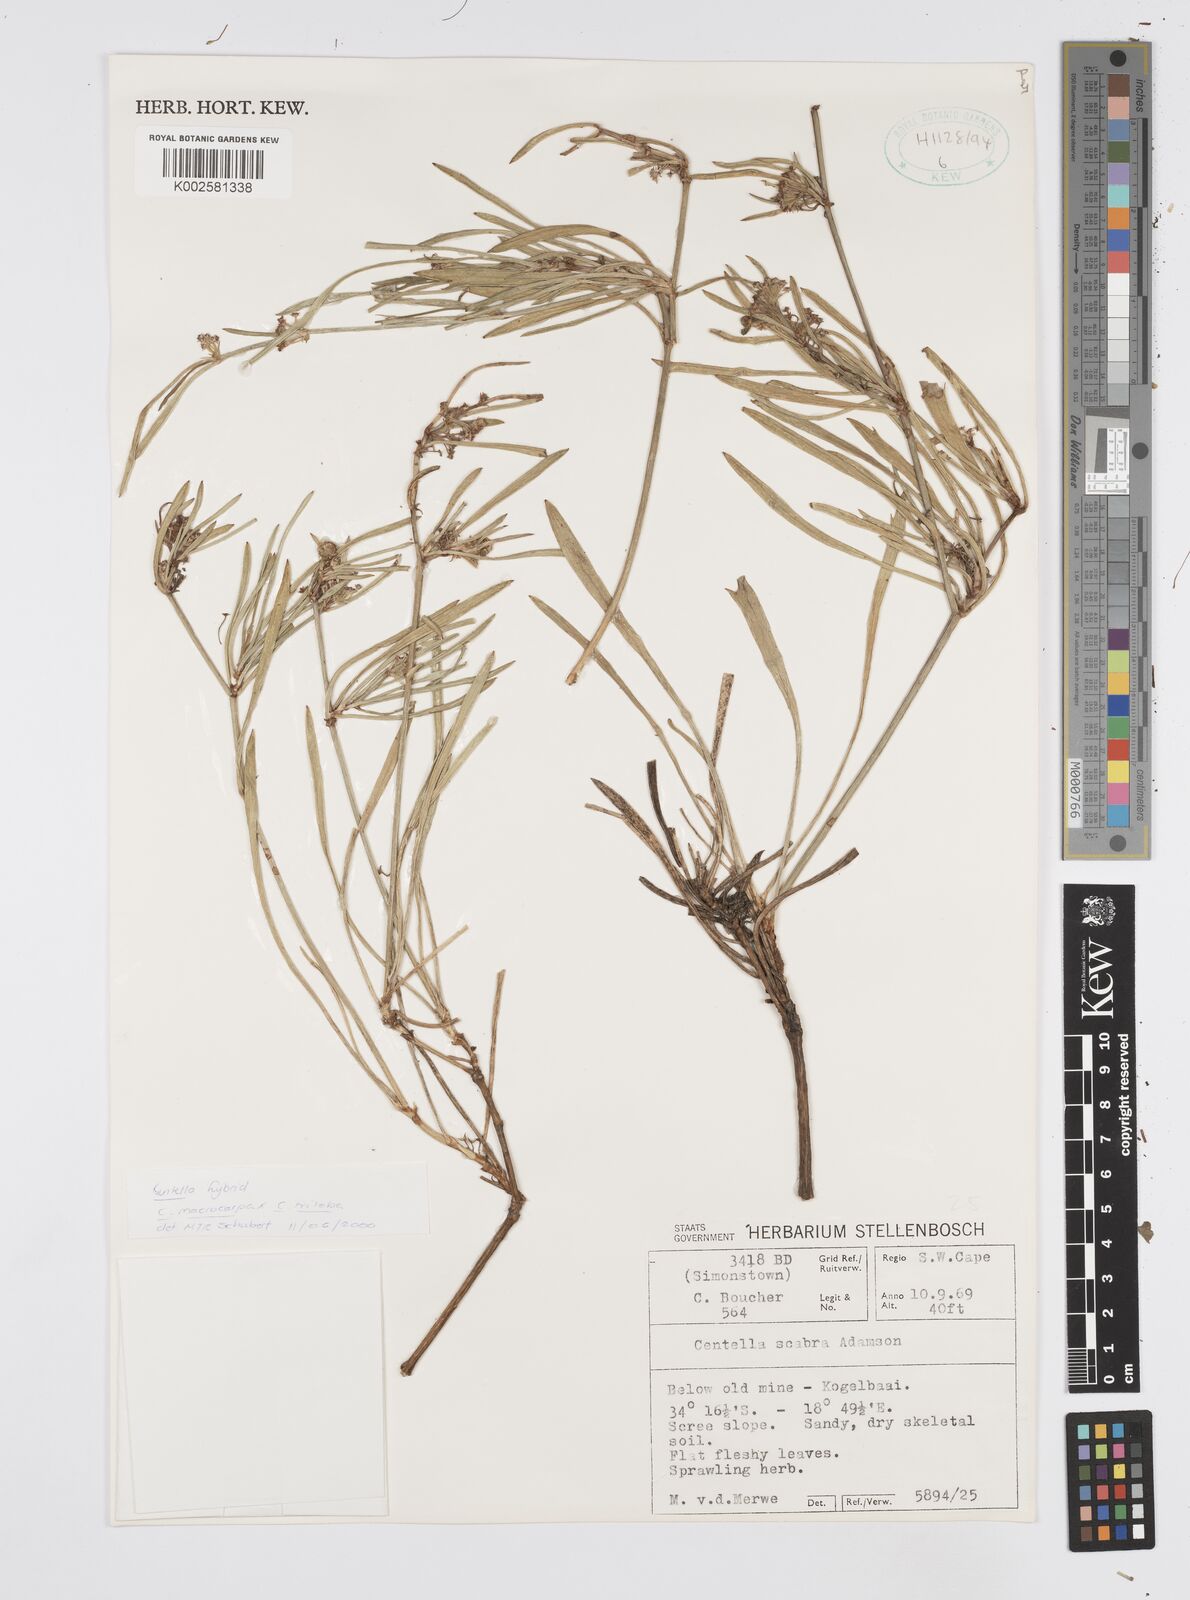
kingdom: Plantae
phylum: Tracheophyta
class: Magnoliopsida
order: Apiales
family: Apiaceae
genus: Centella
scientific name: Centella
